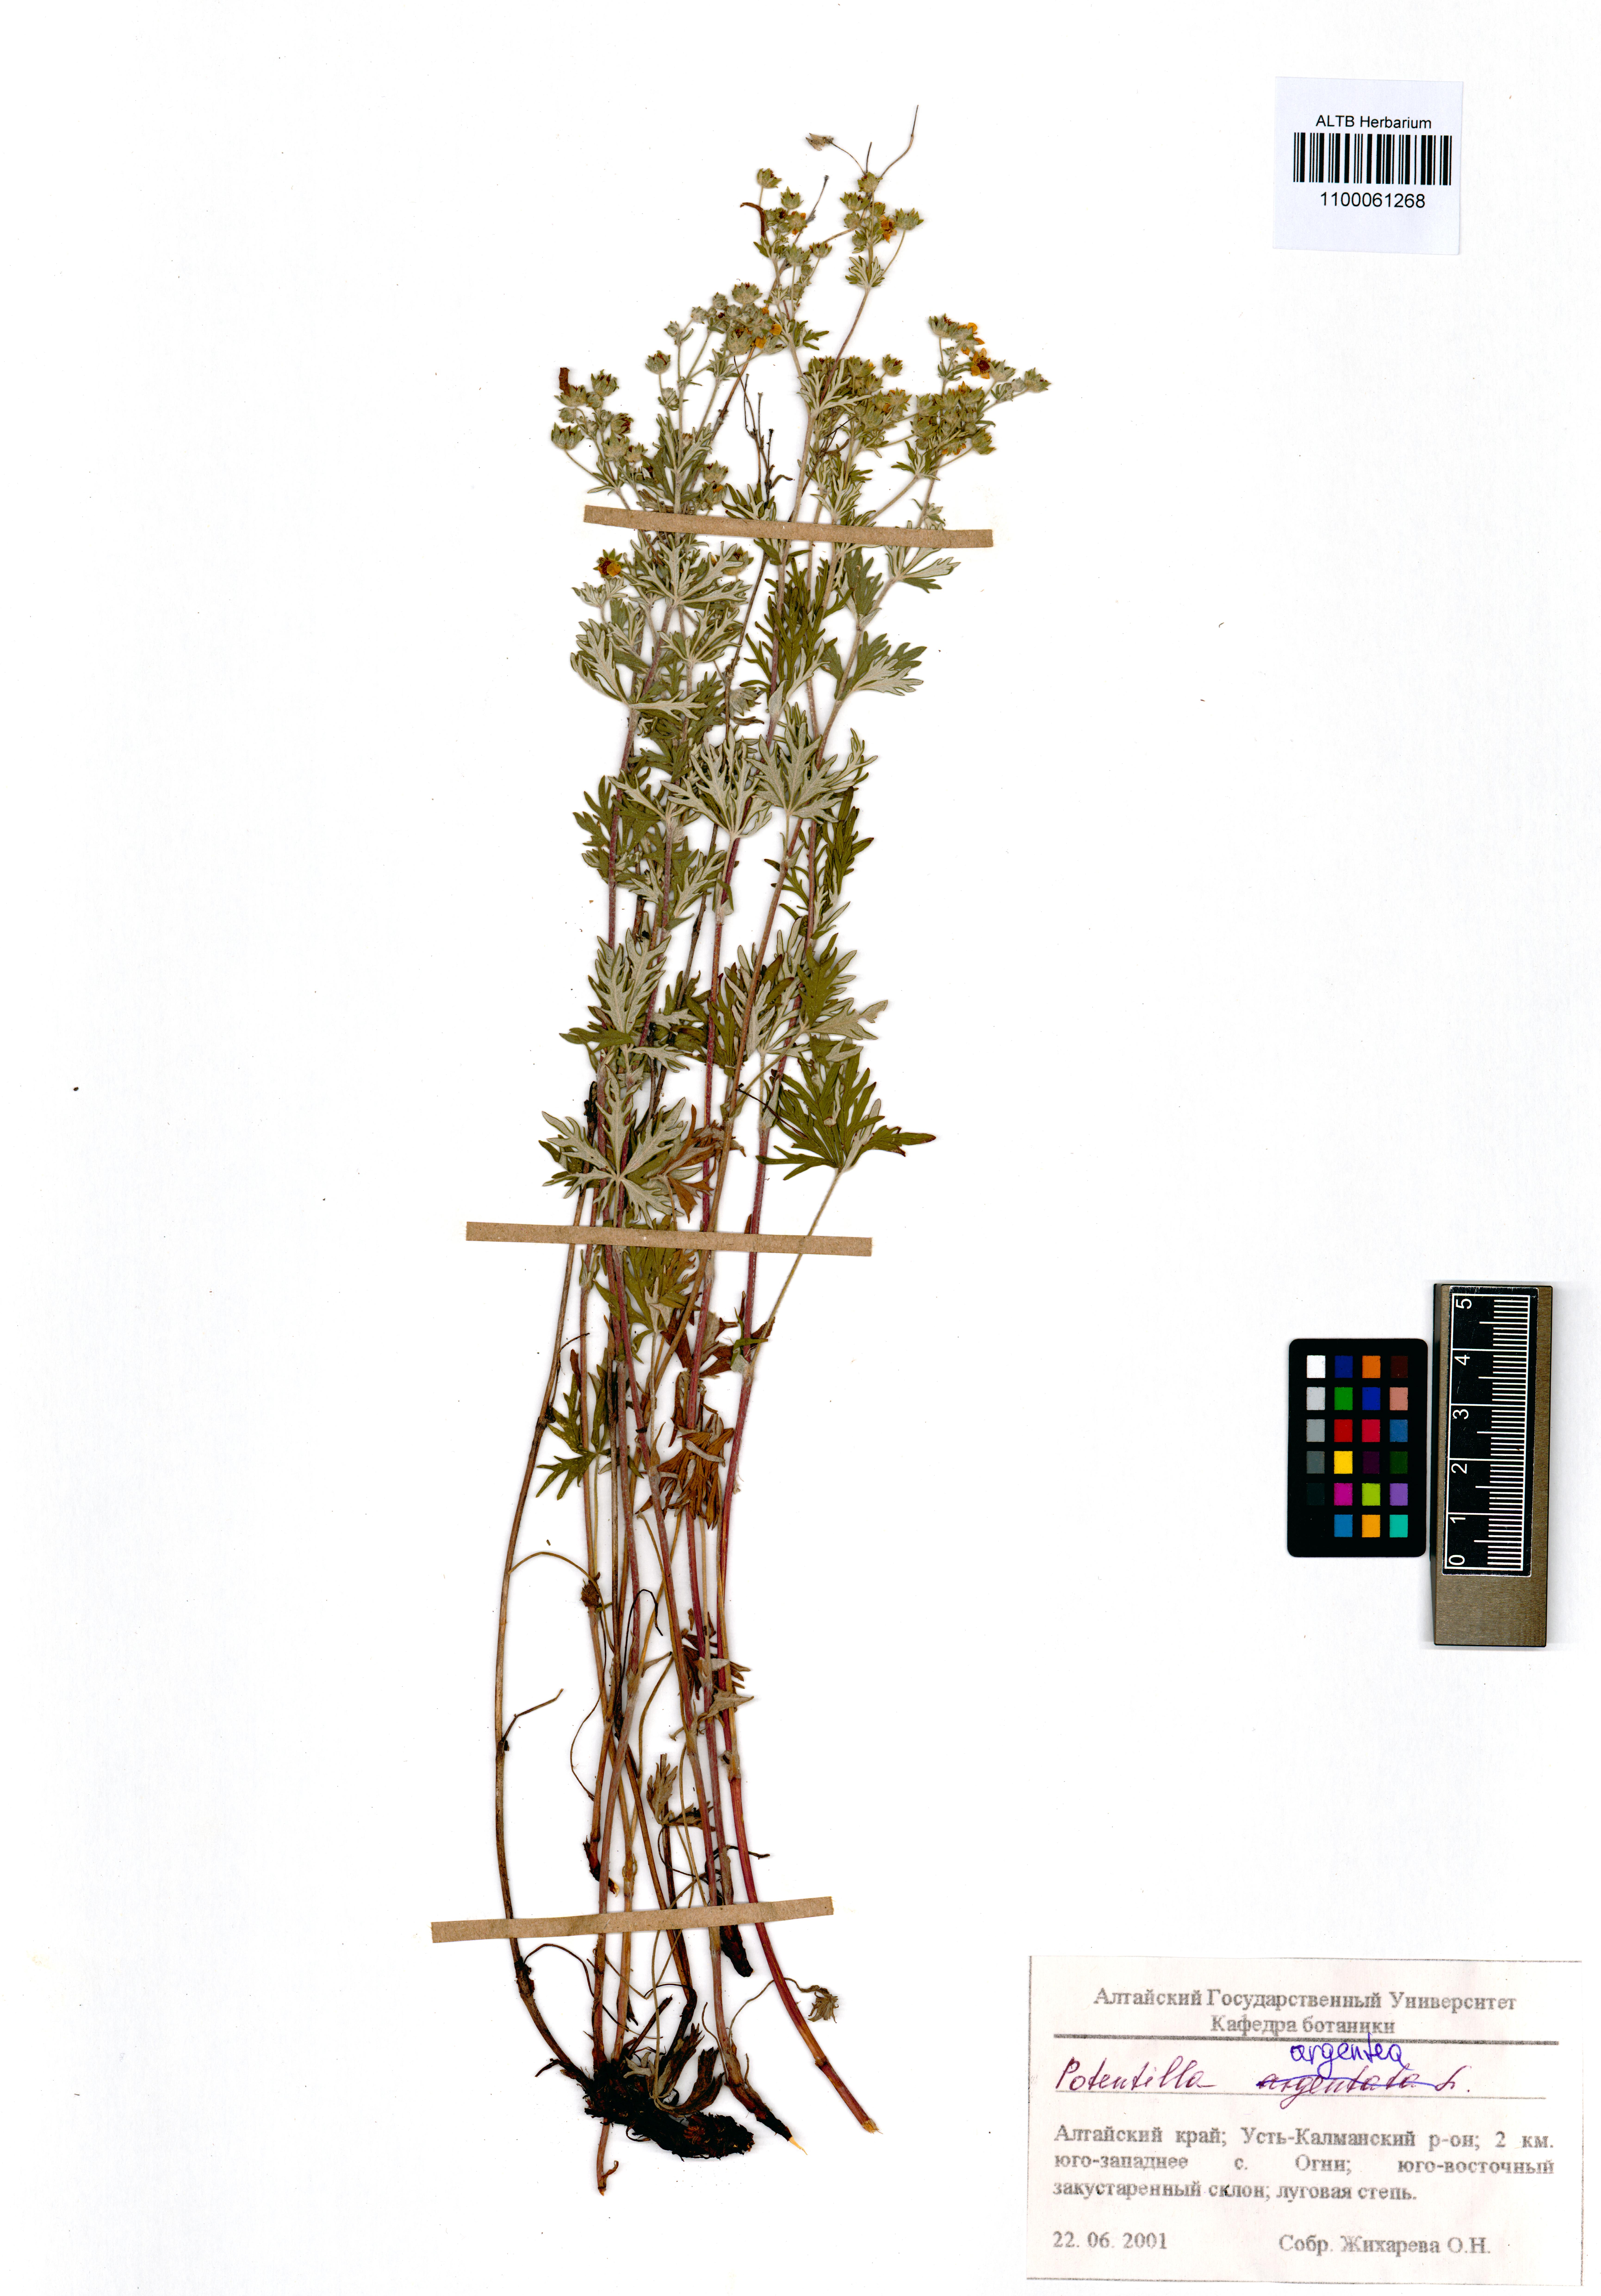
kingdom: Plantae
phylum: Tracheophyta
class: Magnoliopsida
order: Rosales
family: Rosaceae
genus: Potentilla
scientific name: Potentilla argentea
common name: Hoary cinquefoil
